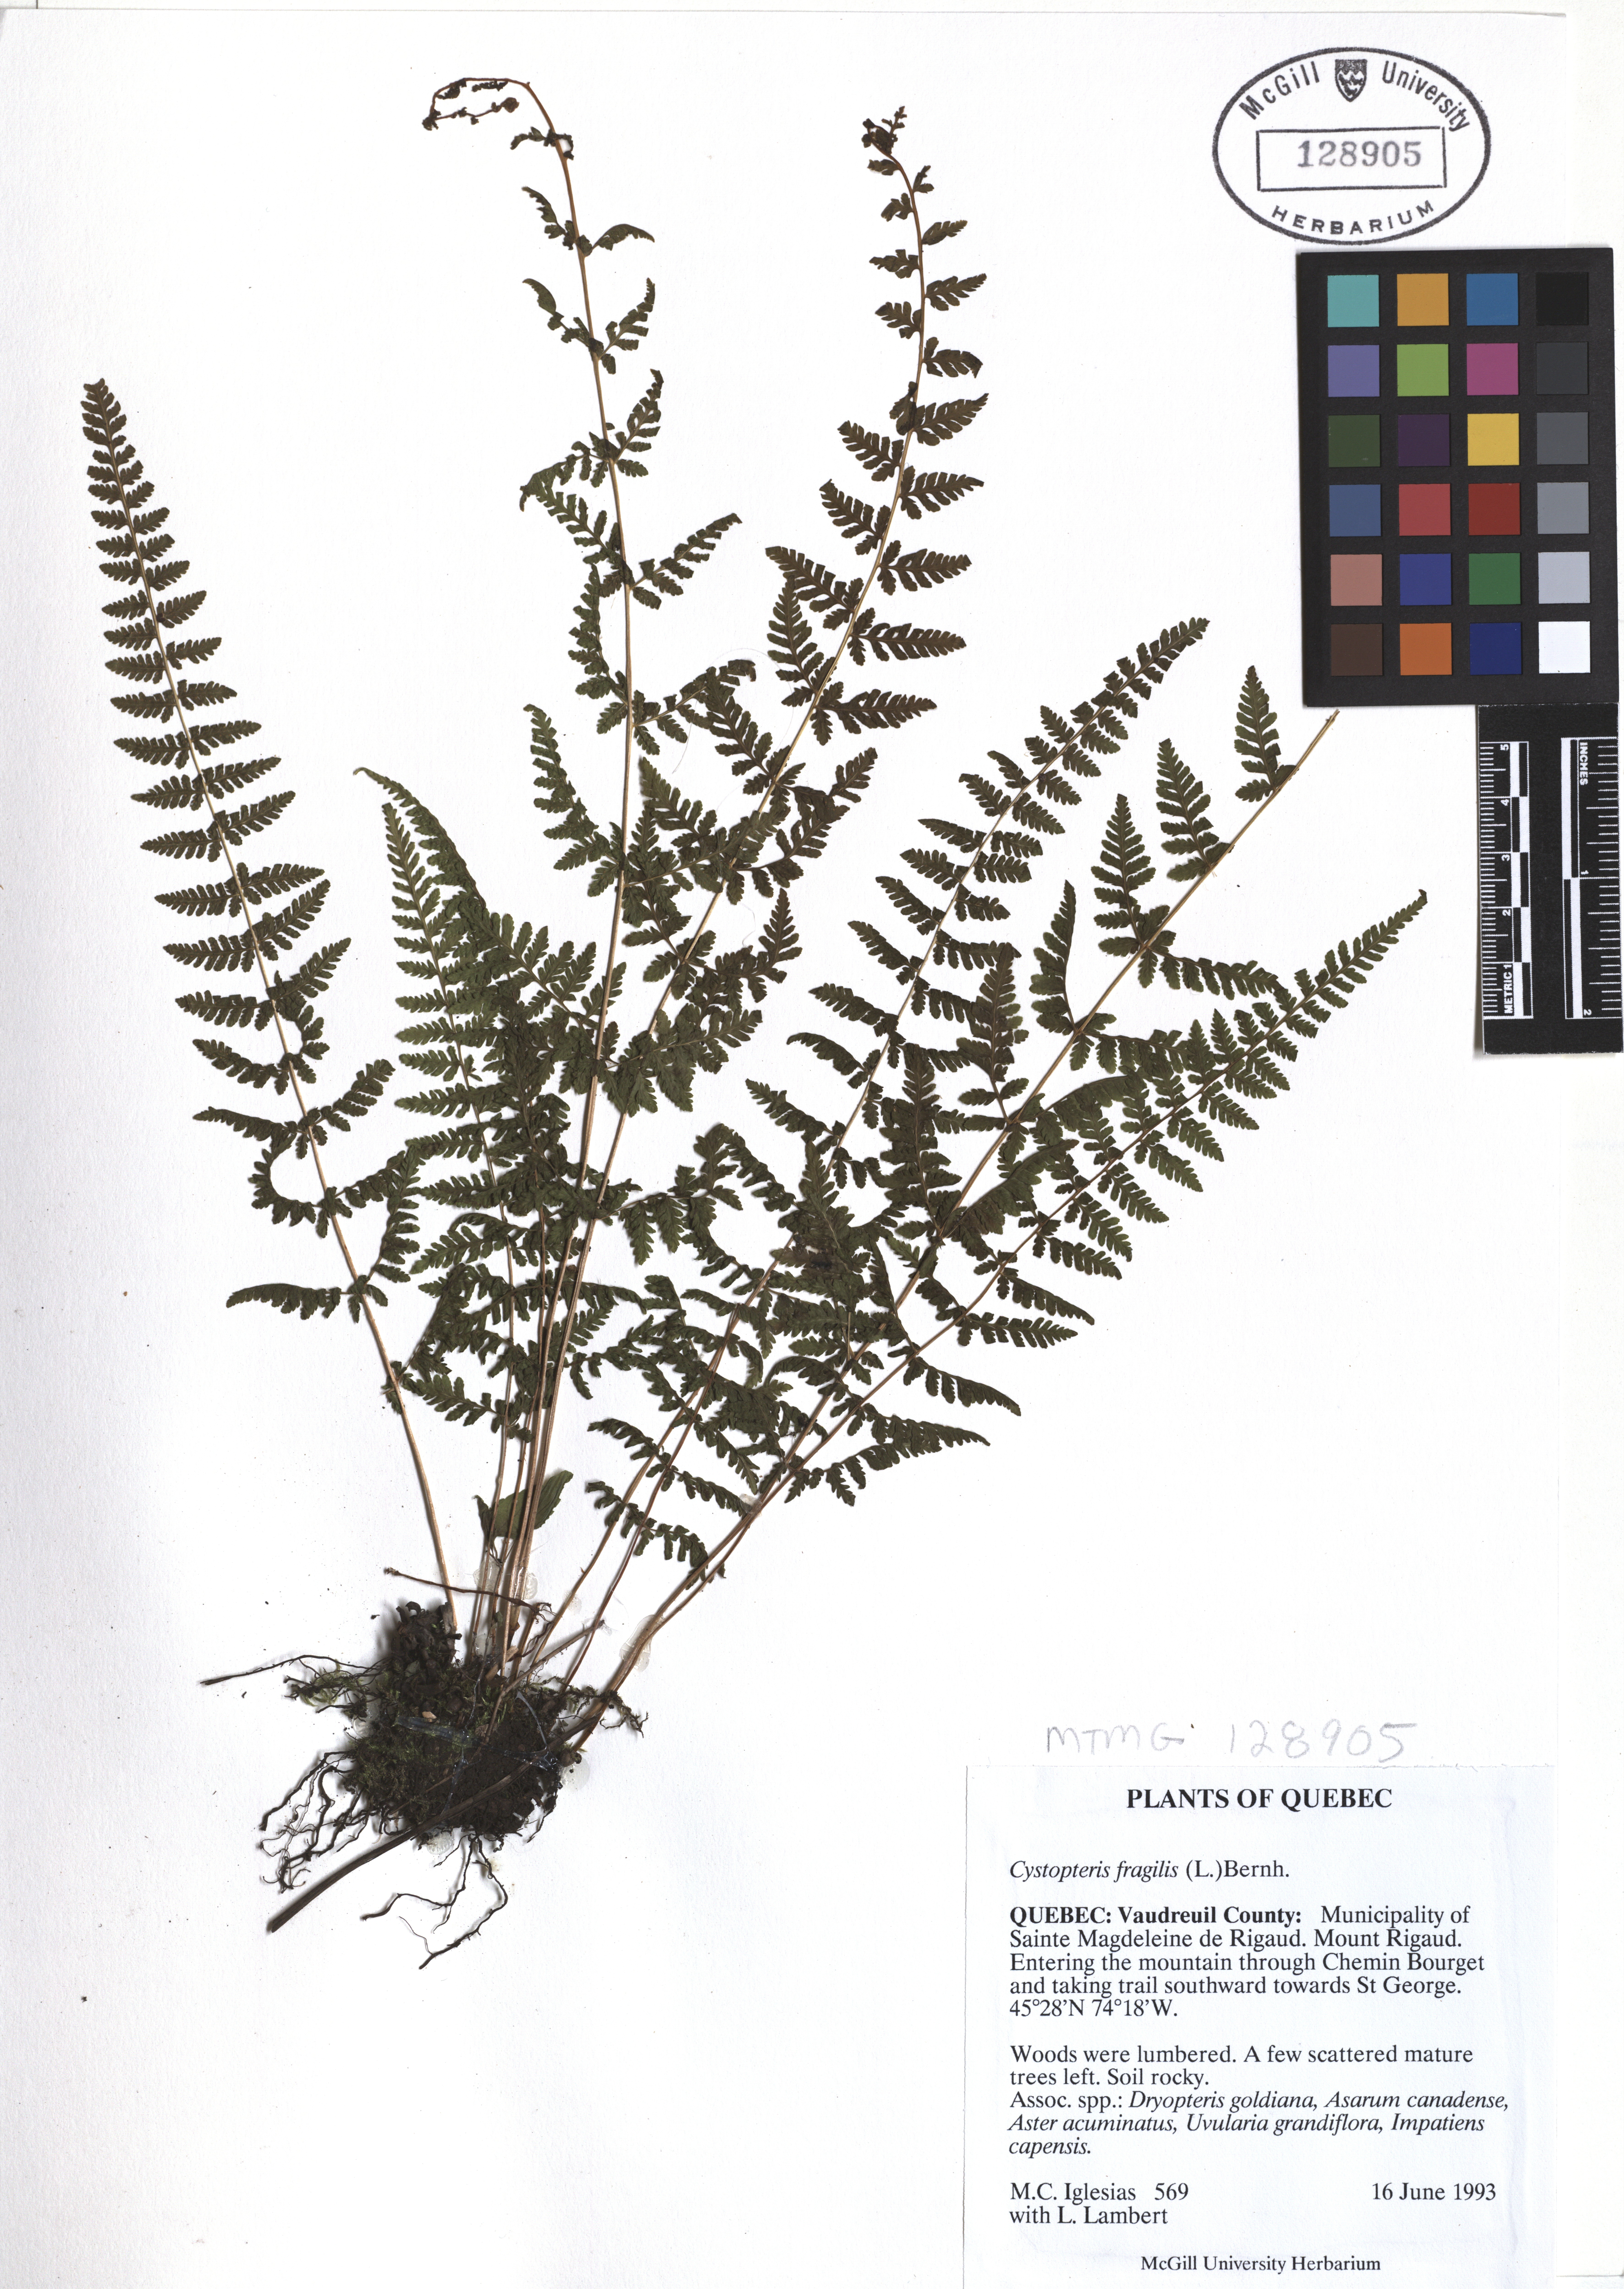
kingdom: Plantae
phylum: Tracheophyta
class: Polypodiopsida
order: Polypodiales
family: Cystopteridaceae
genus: Cystopteris
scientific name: Cystopteris fragilis
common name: Brittle bladder fern
